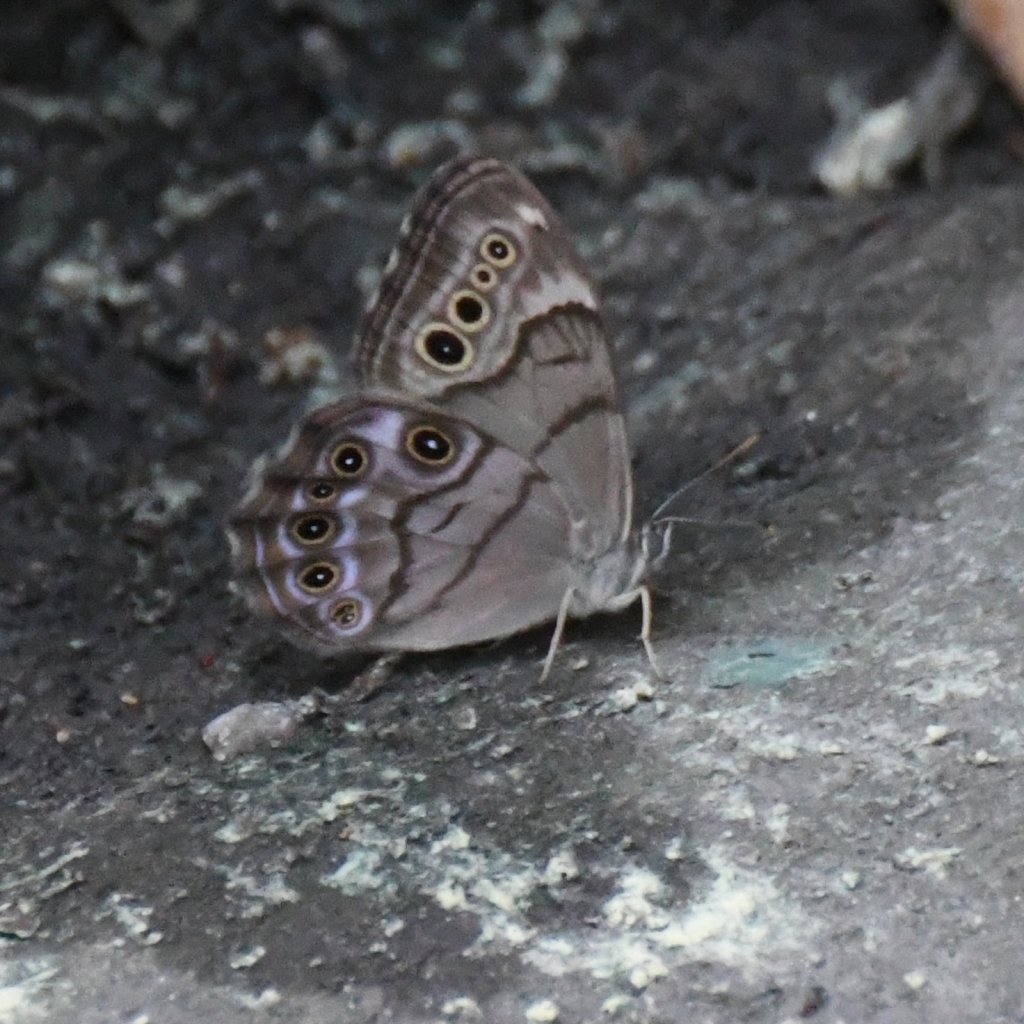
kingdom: Animalia
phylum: Arthropoda
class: Insecta
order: Lepidoptera
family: Nymphalidae
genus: Lethe
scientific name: Lethe anthedon
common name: Northern Pearly-Eye
